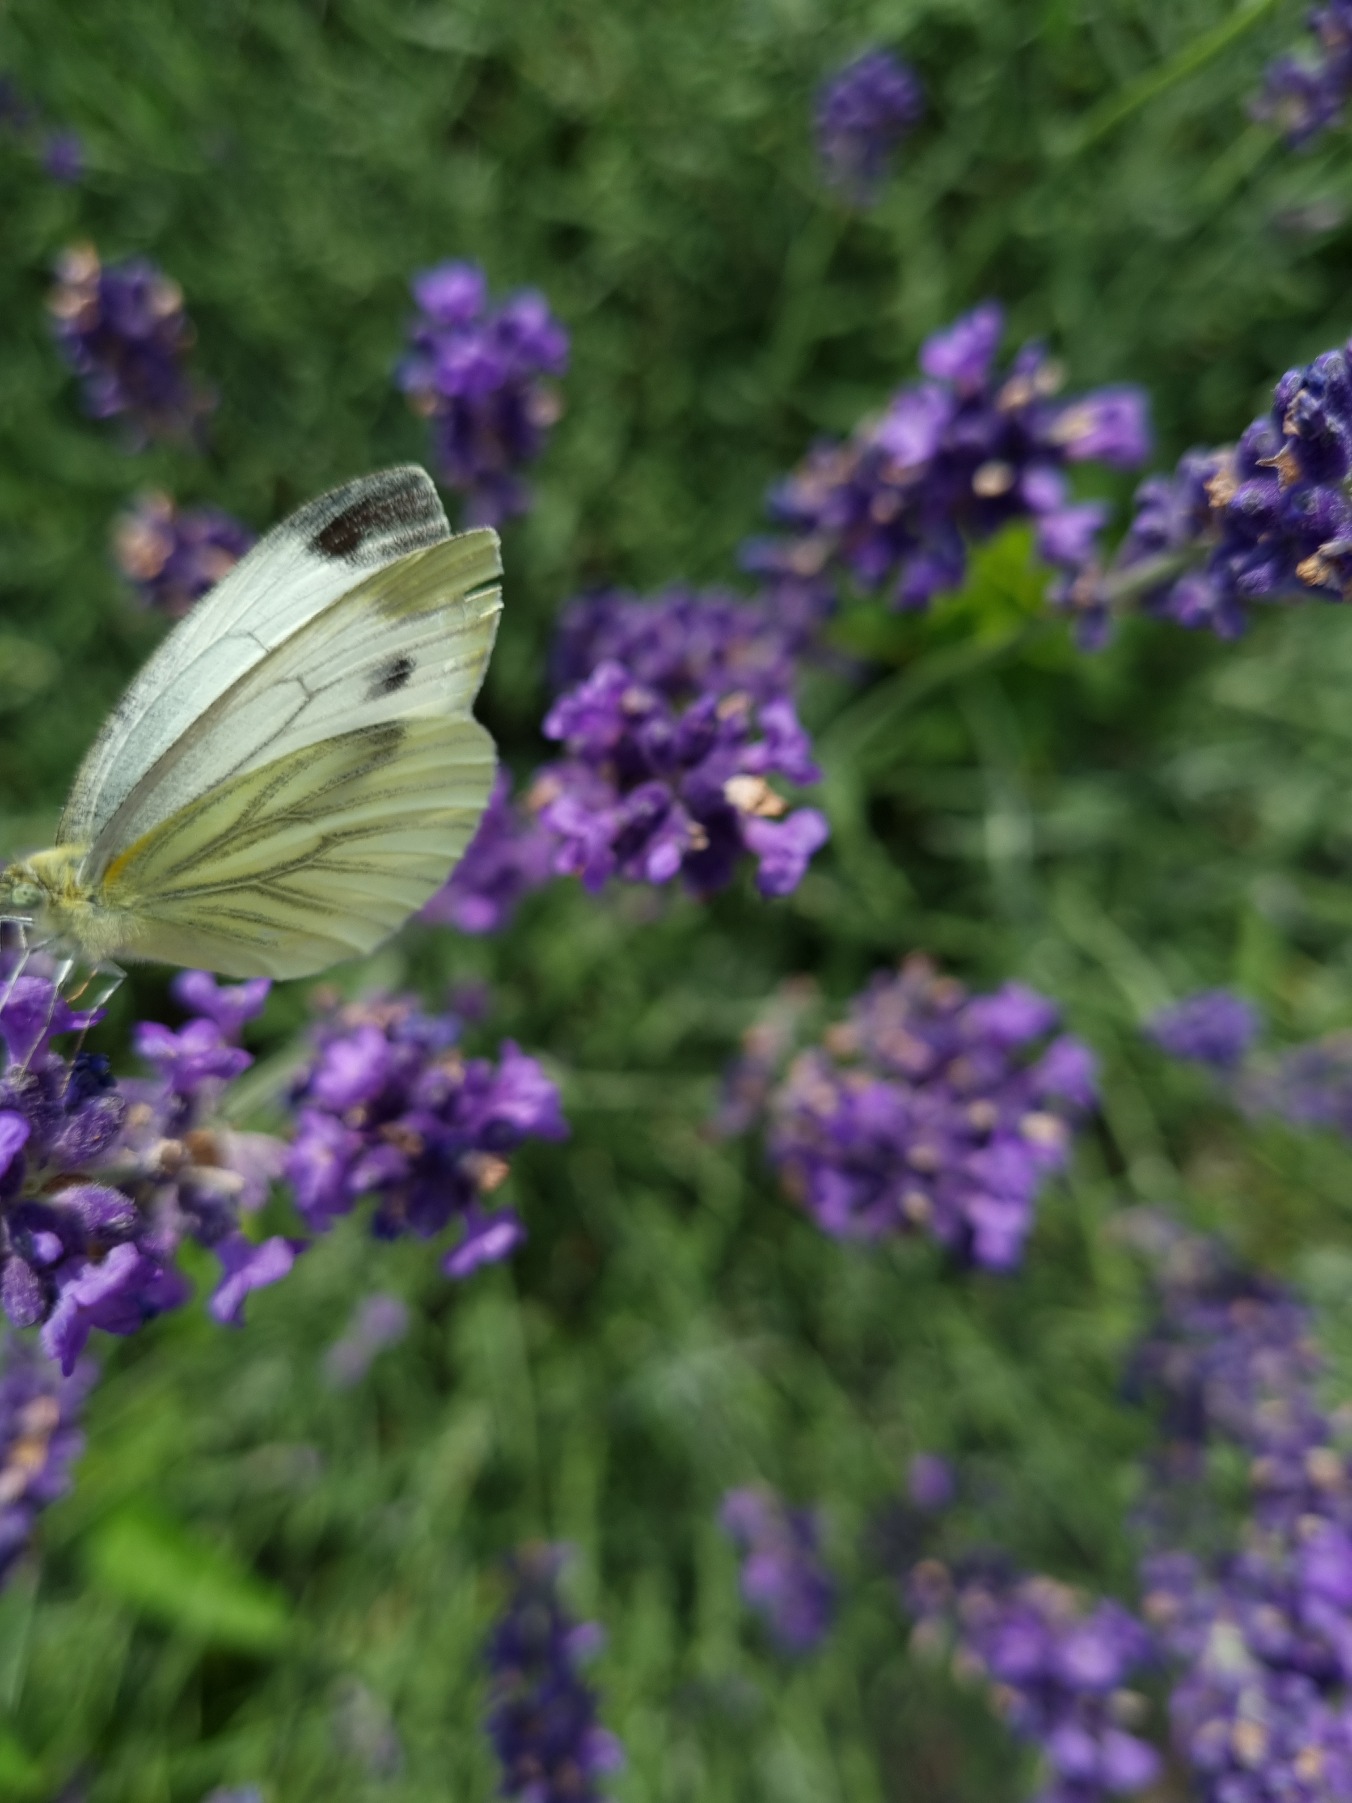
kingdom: Animalia
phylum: Arthropoda
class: Insecta
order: Lepidoptera
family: Pieridae
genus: Pieris
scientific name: Pieris napi
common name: Grønåret kålsommerfugl
